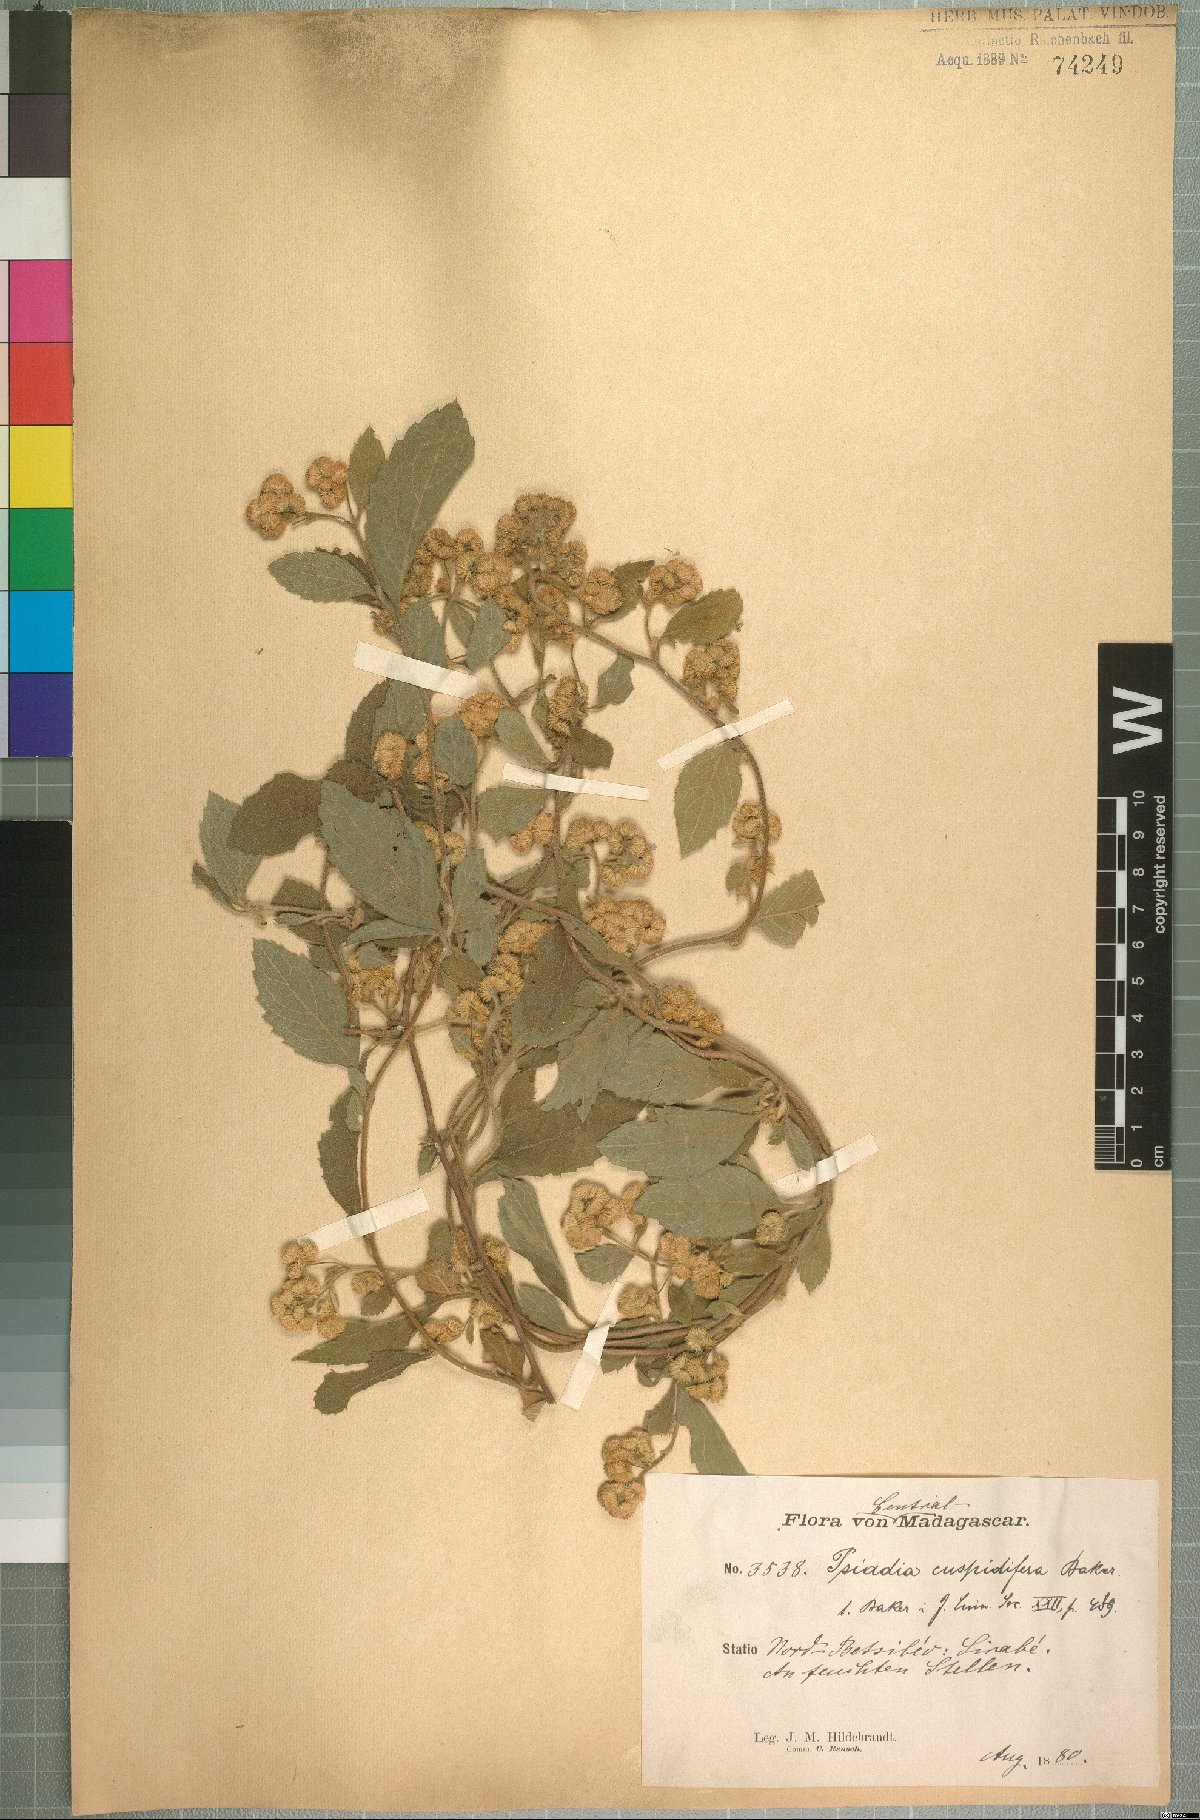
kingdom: Plantae
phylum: Tracheophyta
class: Magnoliopsida
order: Asterales
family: Asteraceae
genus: Psiadia
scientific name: Psiadia ageratoides
